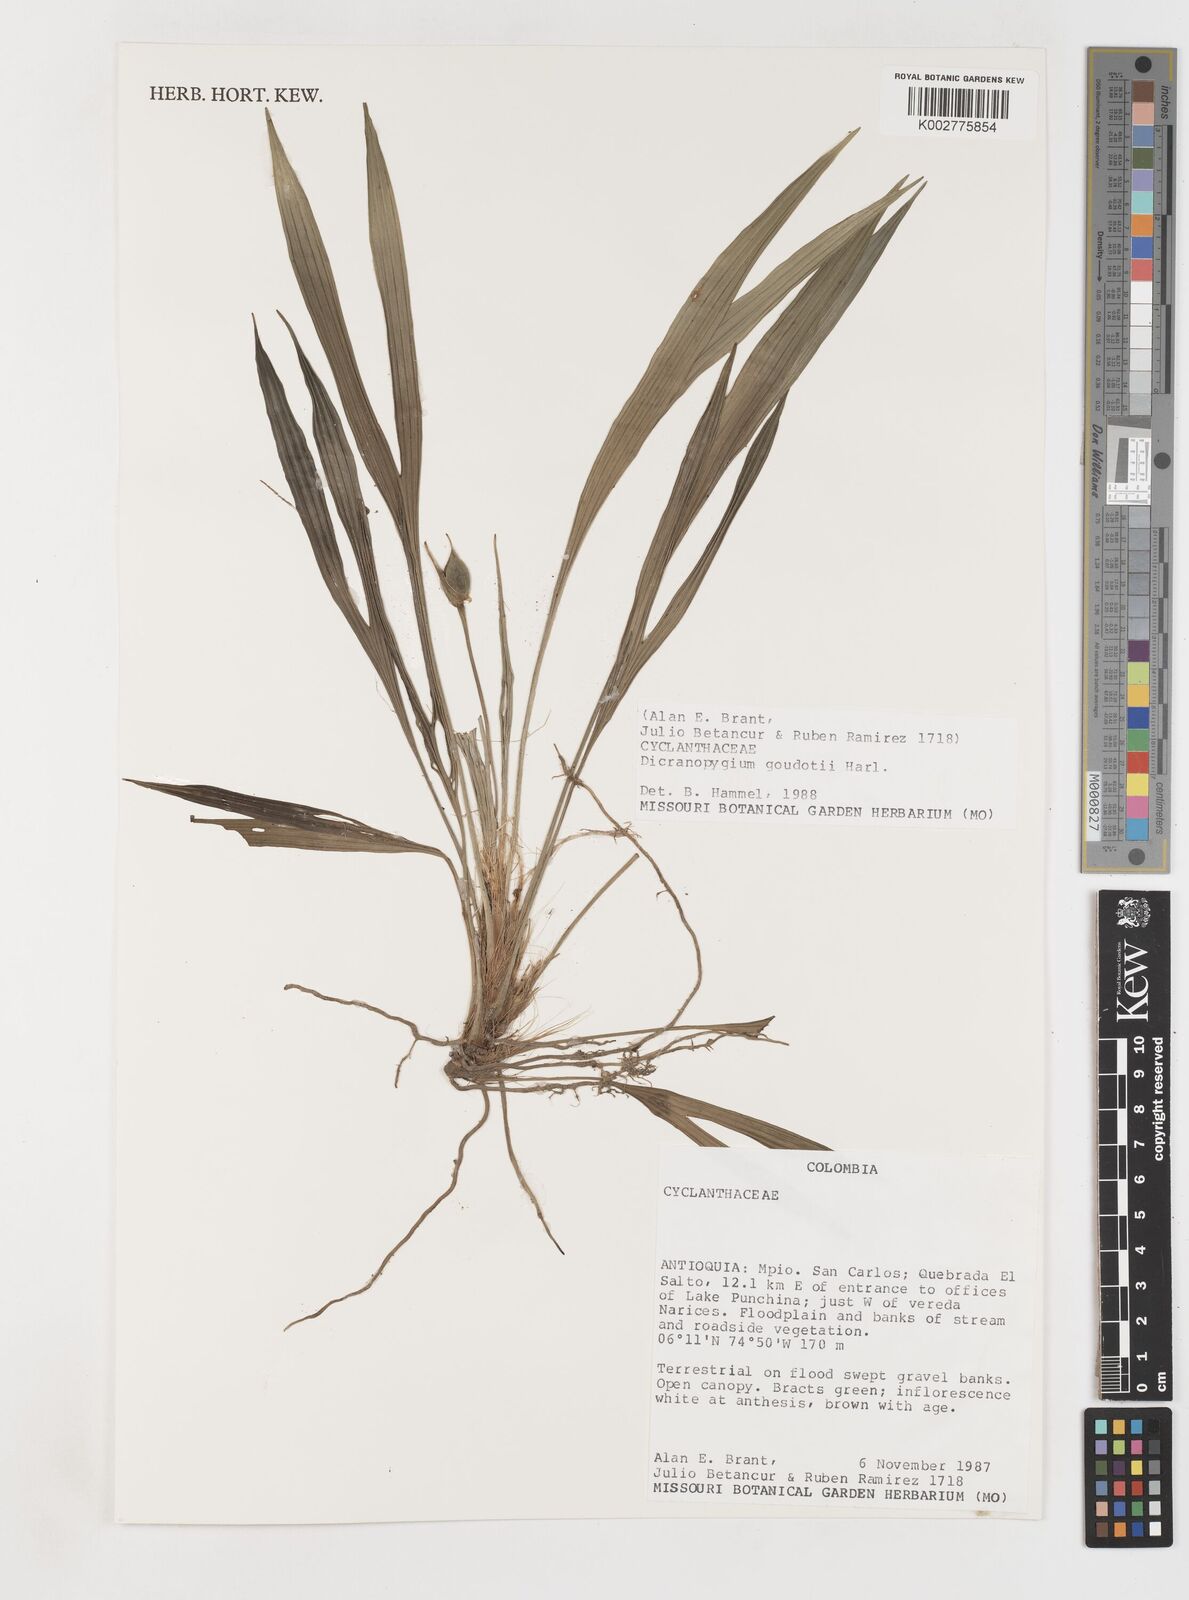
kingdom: Plantae
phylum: Tracheophyta
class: Liliopsida
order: Pandanales
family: Cyclanthaceae
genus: Dicranopygium
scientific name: Dicranopygium goudotii
